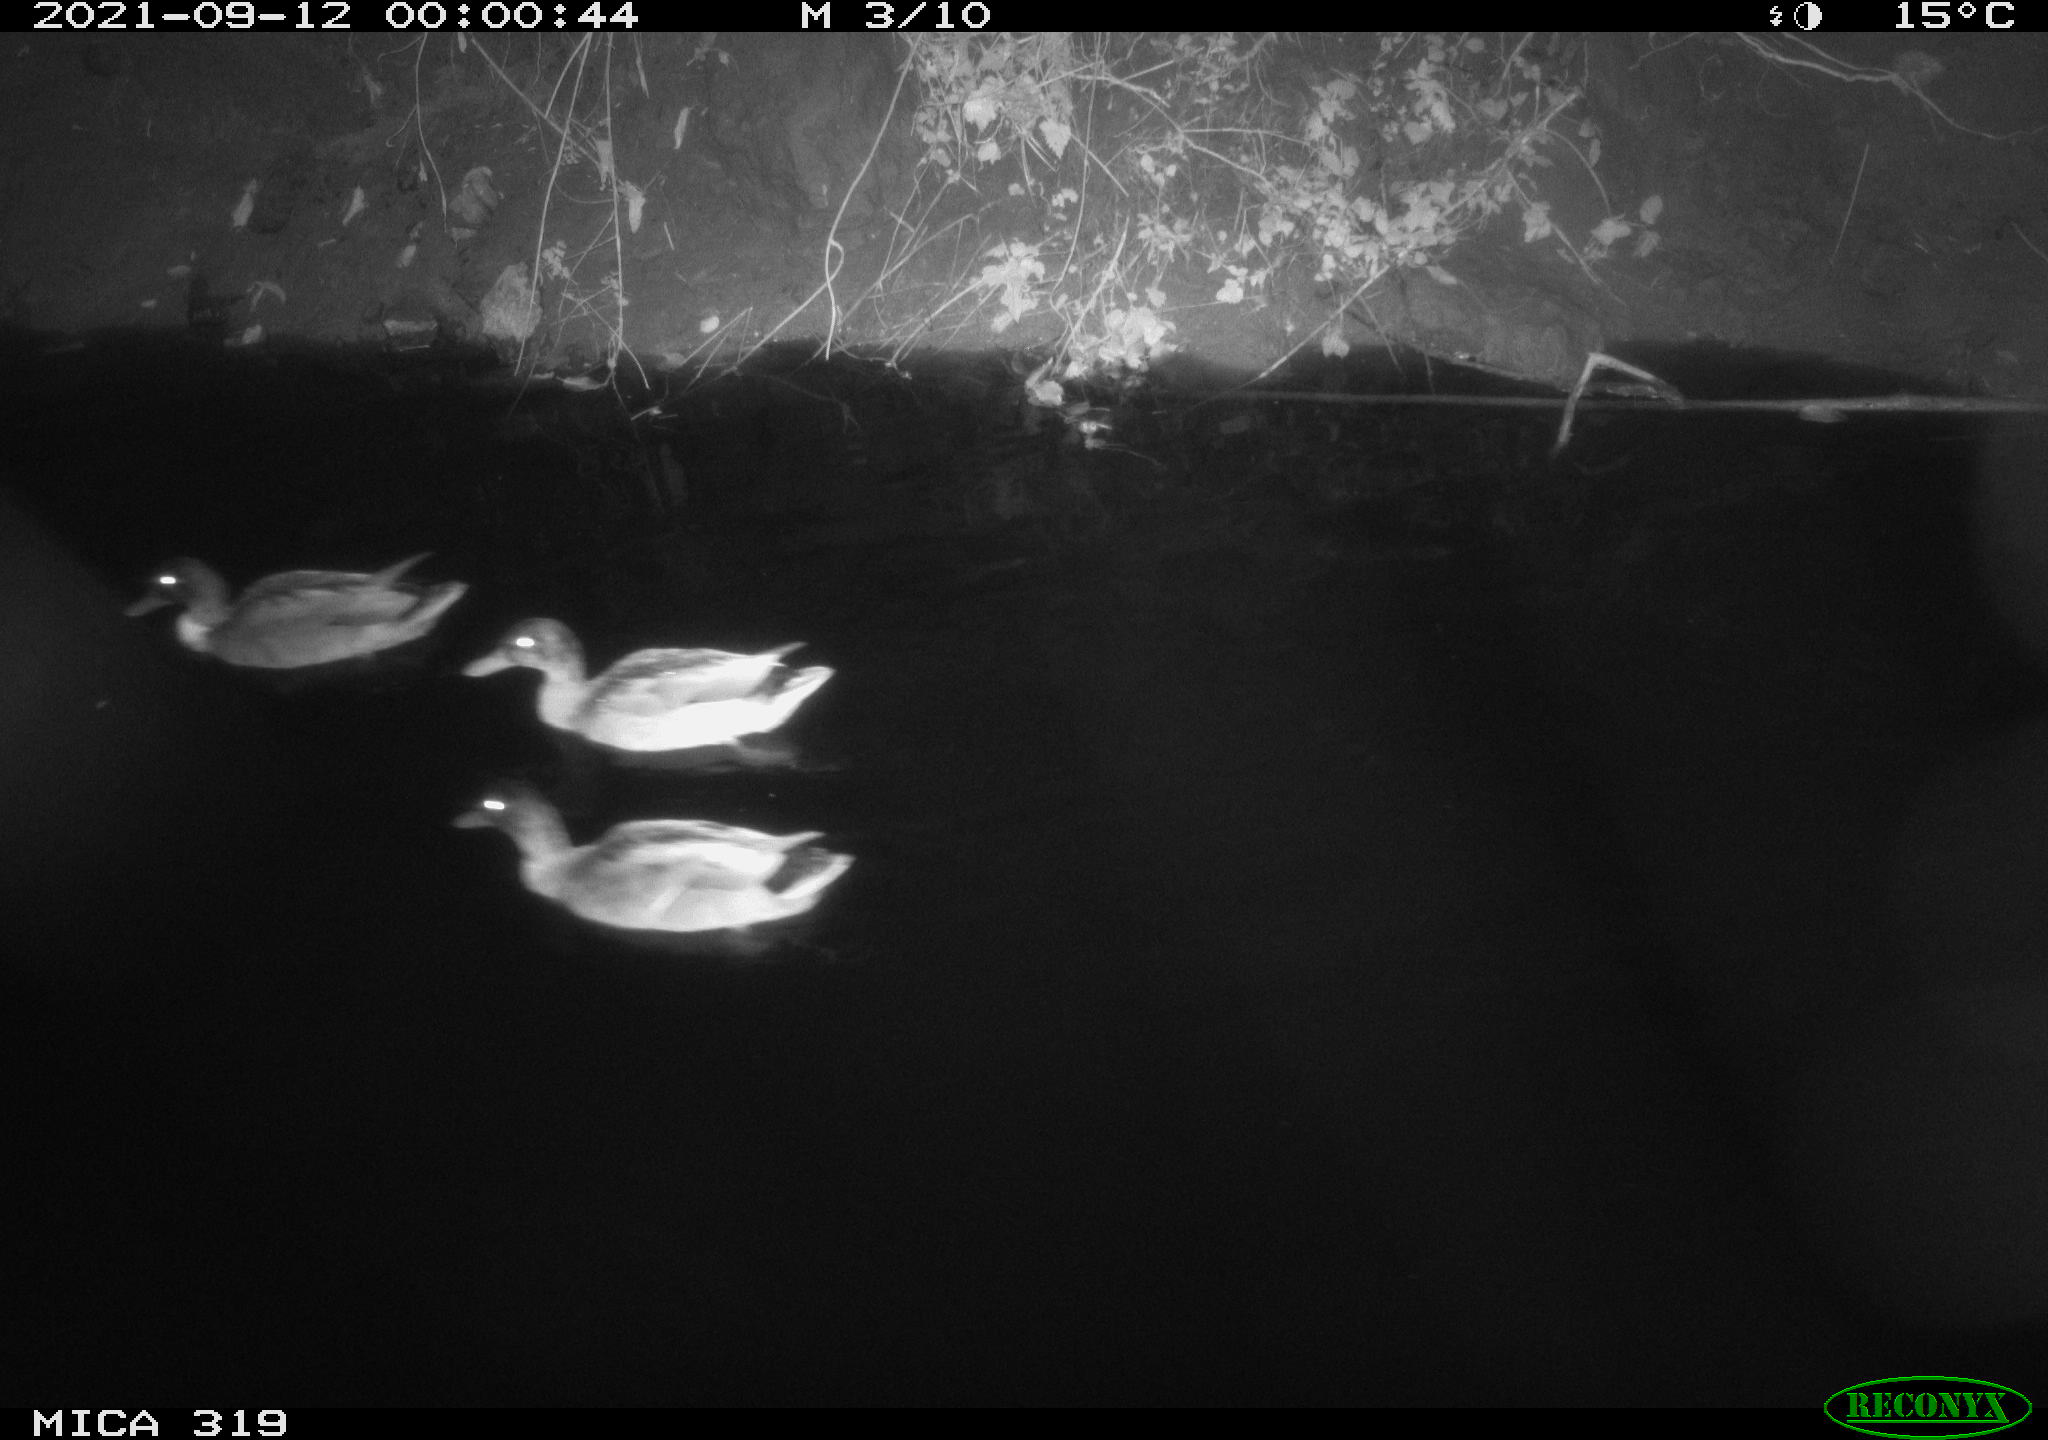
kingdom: Animalia
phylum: Chordata
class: Aves
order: Anseriformes
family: Anatidae
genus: Anas
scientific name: Anas platyrhynchos
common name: Mallard
